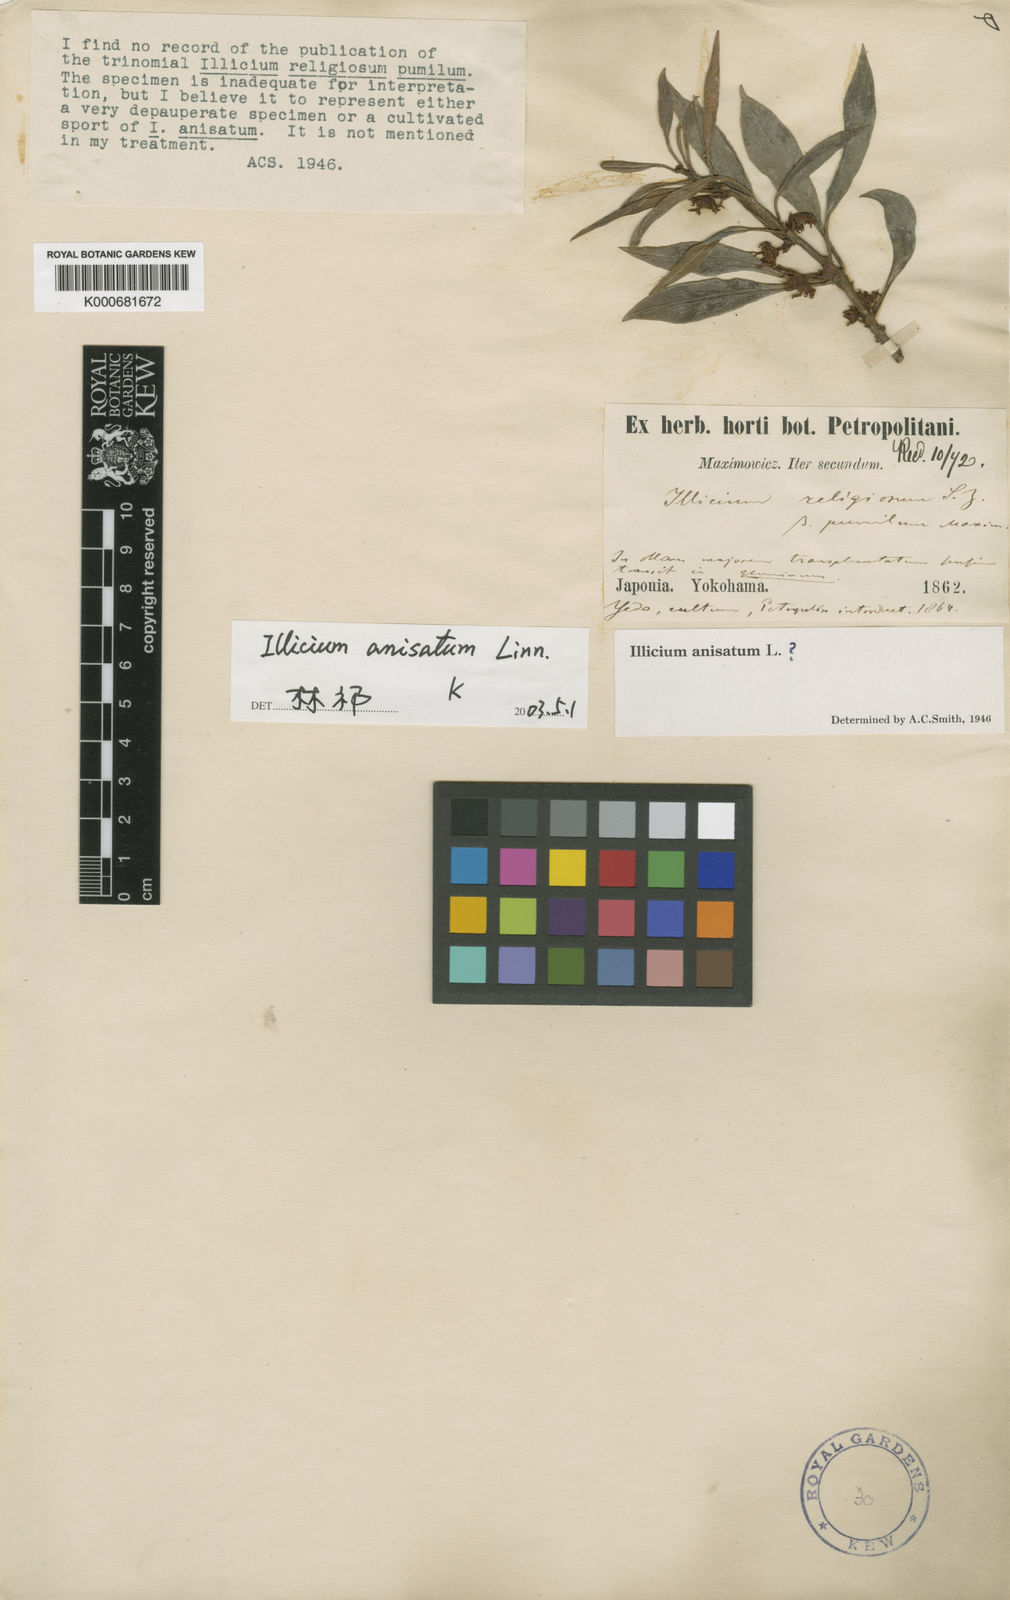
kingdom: Plantae
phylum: Tracheophyta
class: Magnoliopsida
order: Austrobaileyales
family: Schisandraceae
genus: Illicium
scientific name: Illicium anisatum
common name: Sacred anisetree
